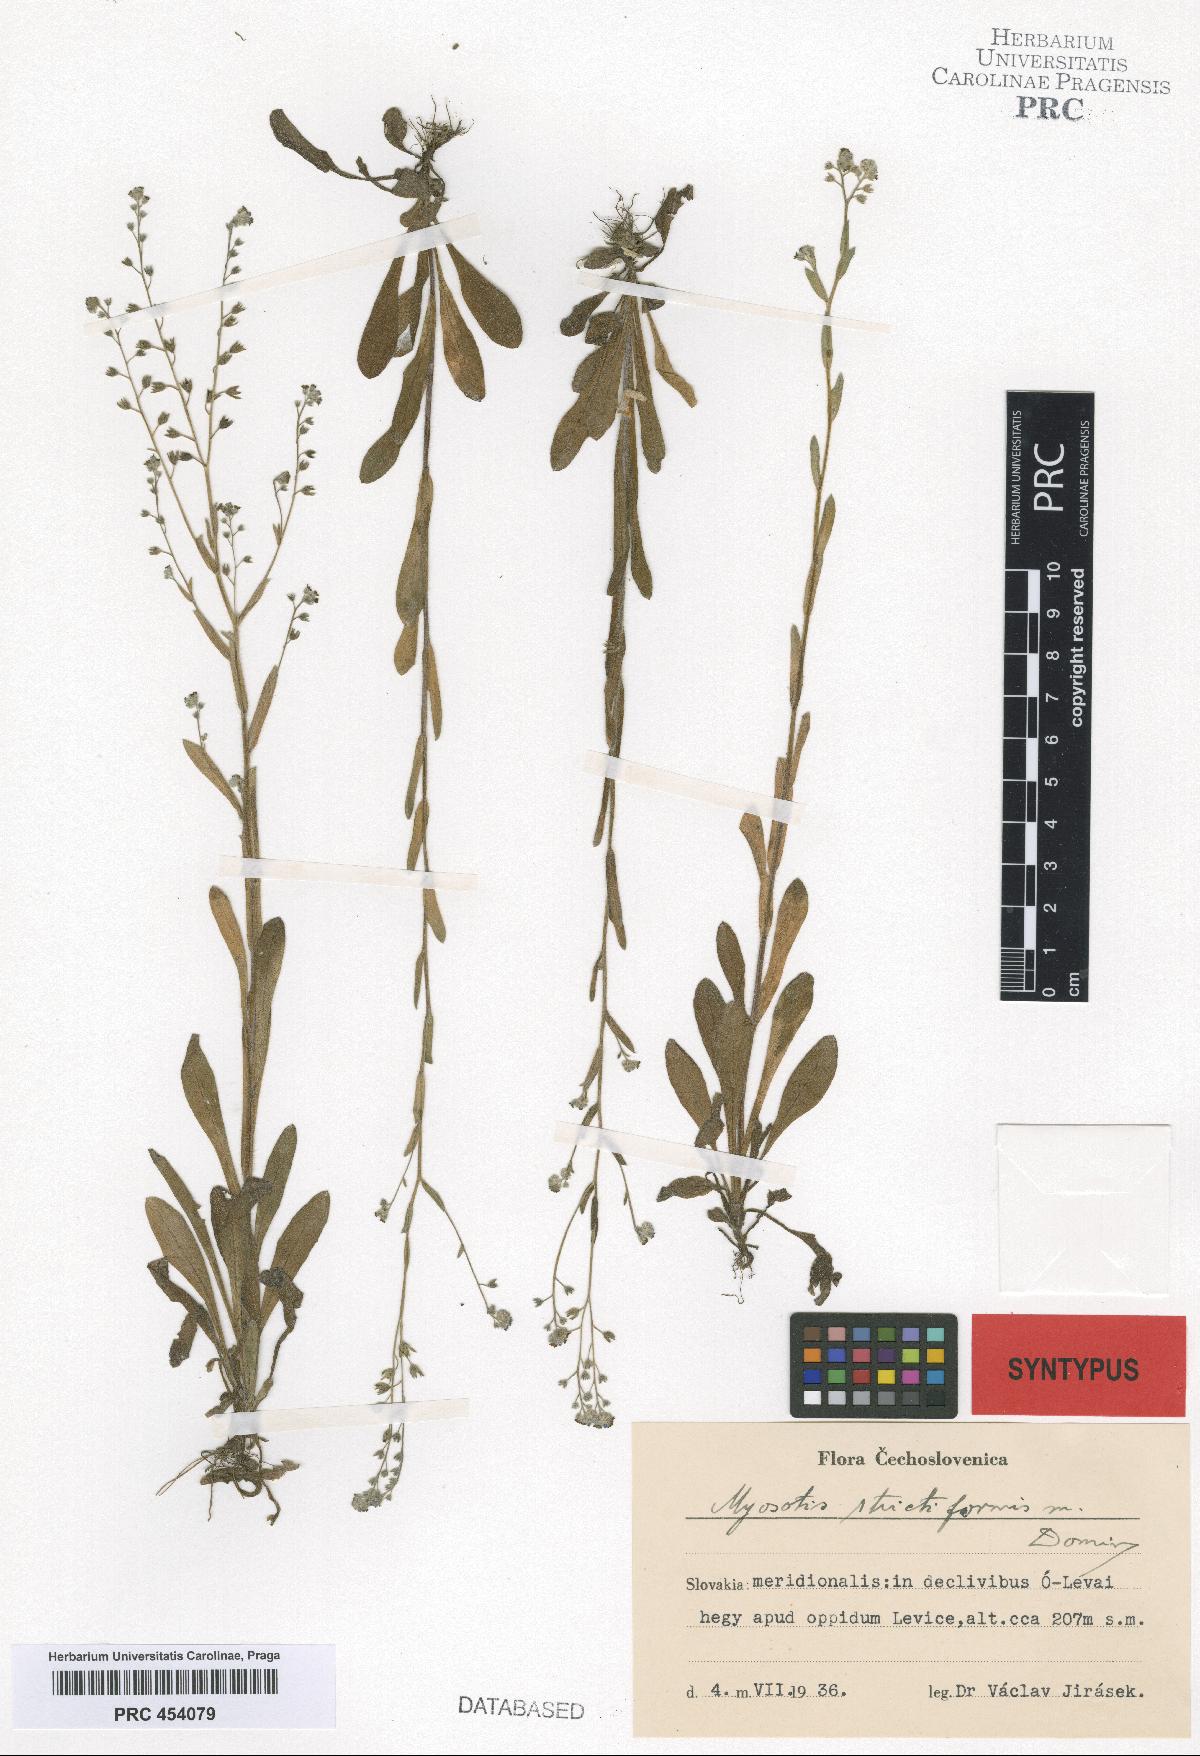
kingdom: Plantae
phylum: Tracheophyta
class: Magnoliopsida
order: Boraginales
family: Boraginaceae
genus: Myosotis
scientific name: Myosotis strictiformis
